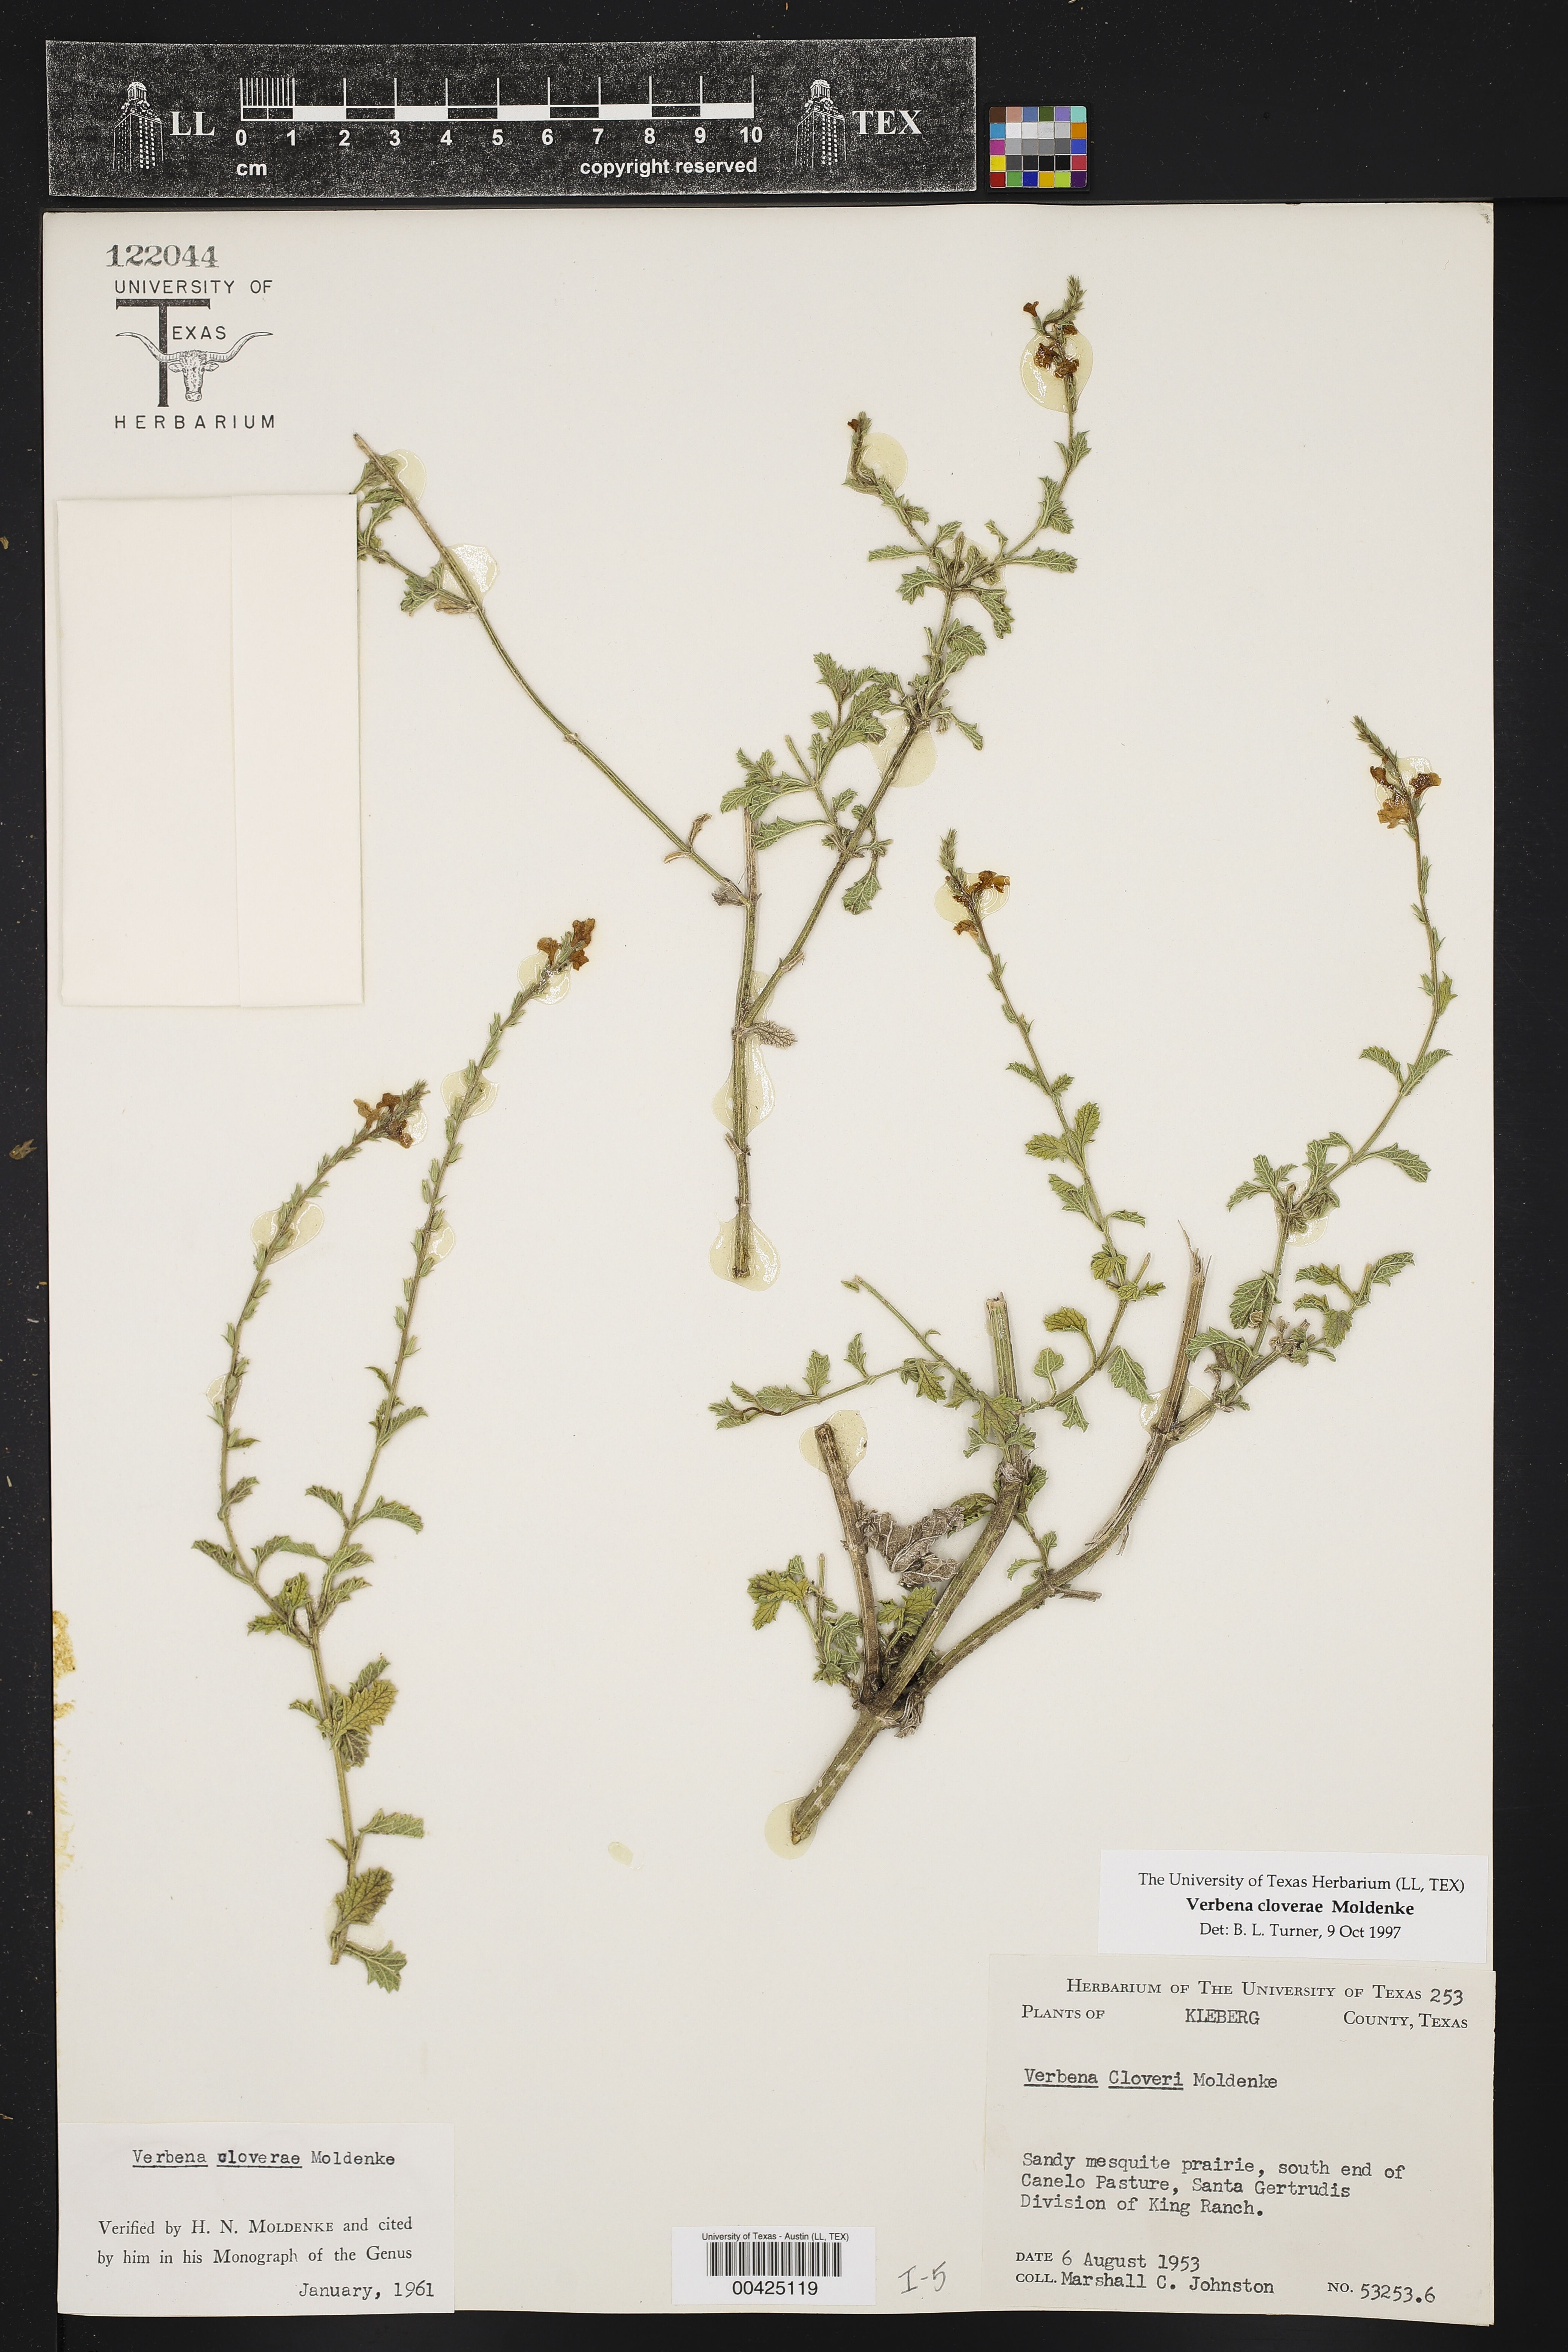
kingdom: Plantae
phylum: Tracheophyta
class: Magnoliopsida
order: Lamiales
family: Verbenaceae
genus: Verbena
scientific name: Verbena cloverae
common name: Clover's vervain
